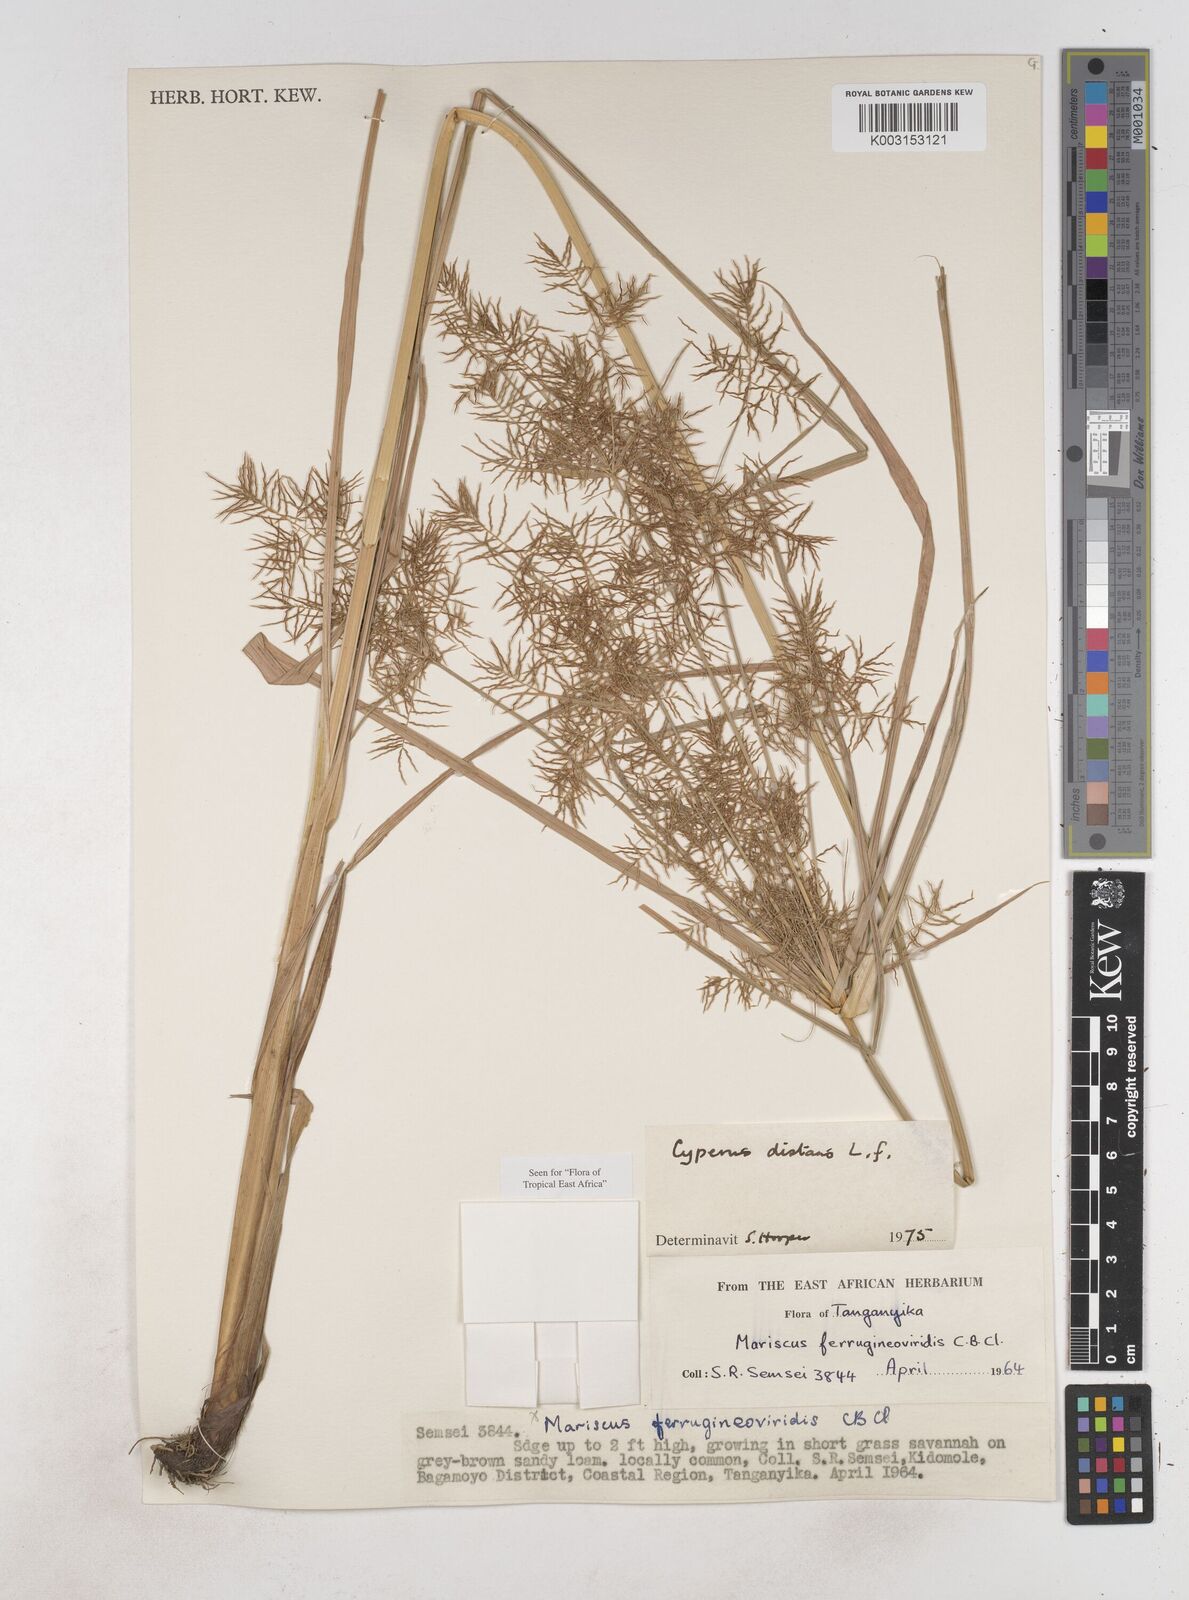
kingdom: Plantae
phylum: Tracheophyta
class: Liliopsida
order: Poales
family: Cyperaceae
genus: Cyperus
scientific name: Cyperus distans
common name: Slender cyperus
